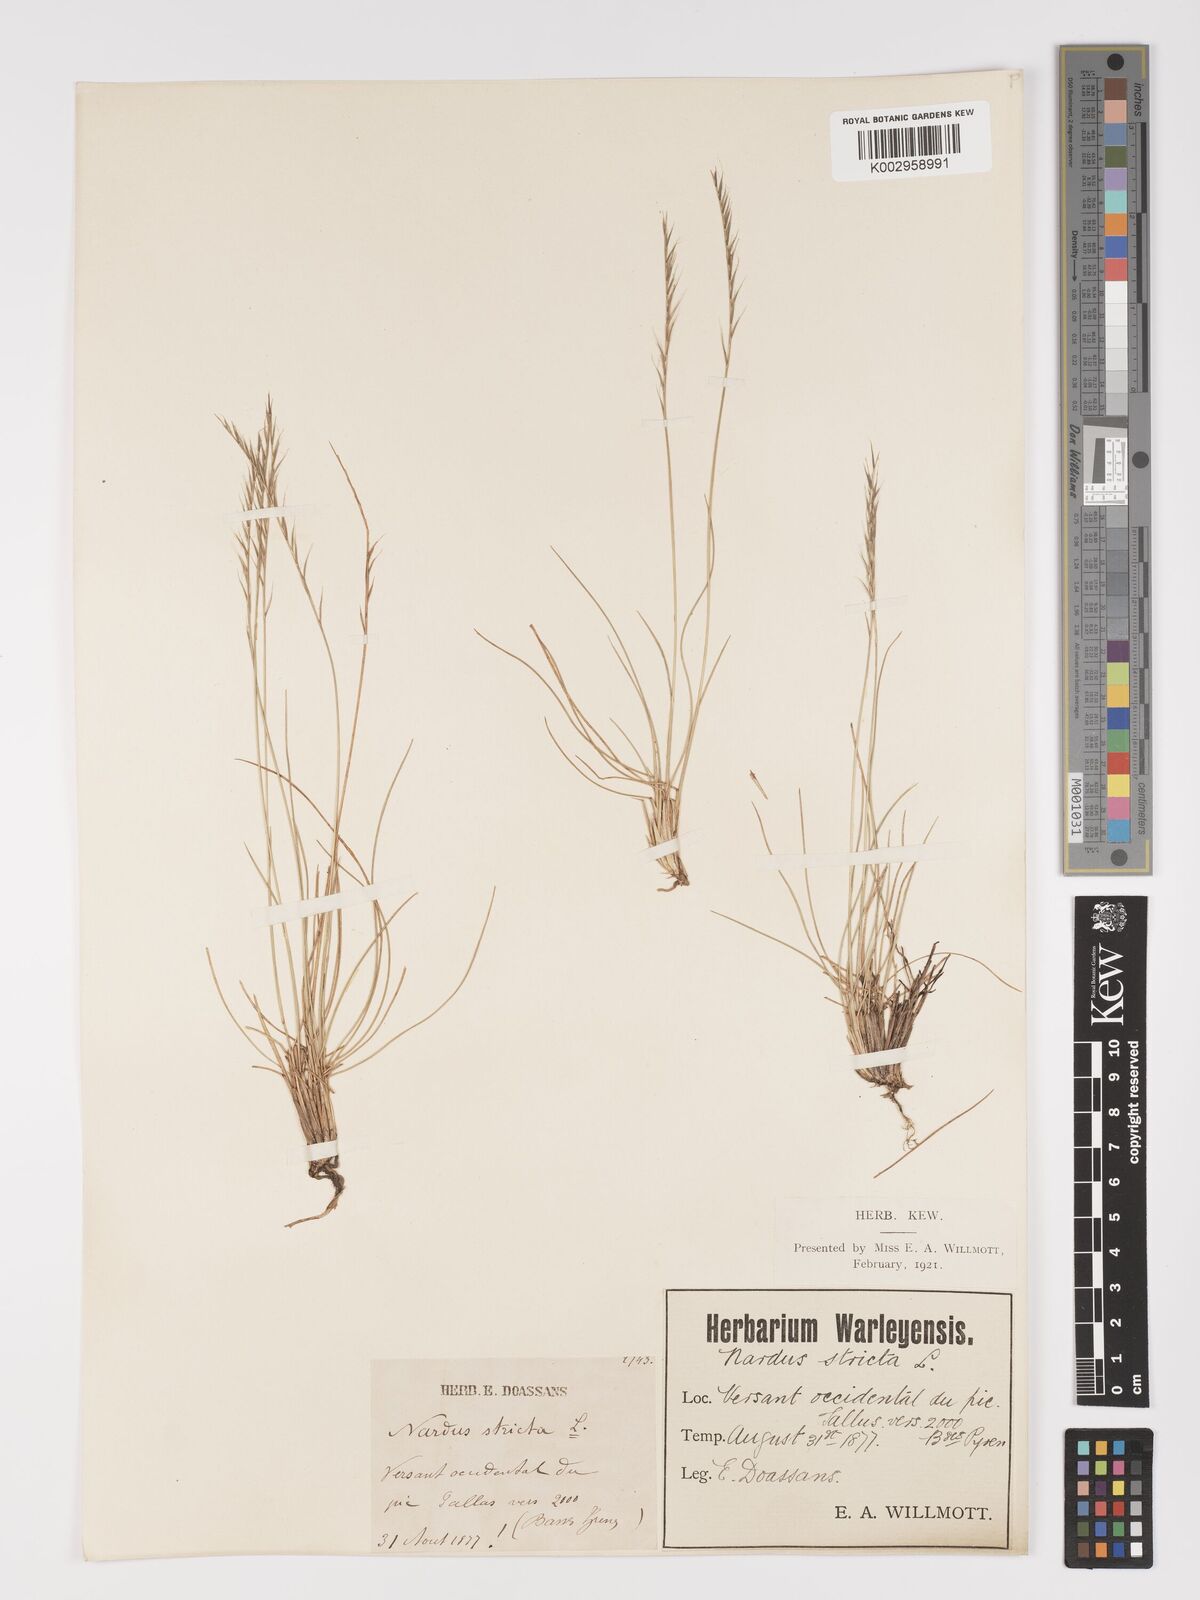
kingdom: Plantae
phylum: Tracheophyta
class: Liliopsida
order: Poales
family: Poaceae
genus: Nardus
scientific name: Nardus stricta
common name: Mat-grass
